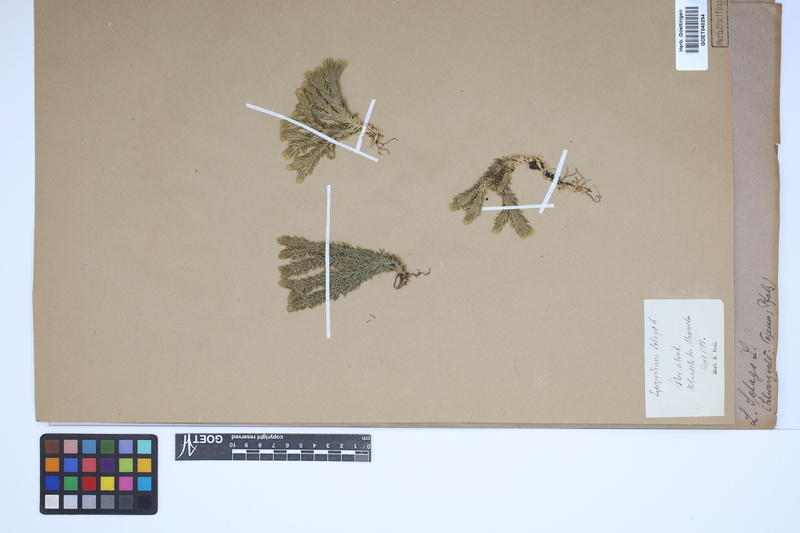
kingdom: Plantae
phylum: Tracheophyta
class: Lycopodiopsida
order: Lycopodiales
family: Lycopodiaceae
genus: Huperzia
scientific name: Huperzia selago
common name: Northern firmoss
